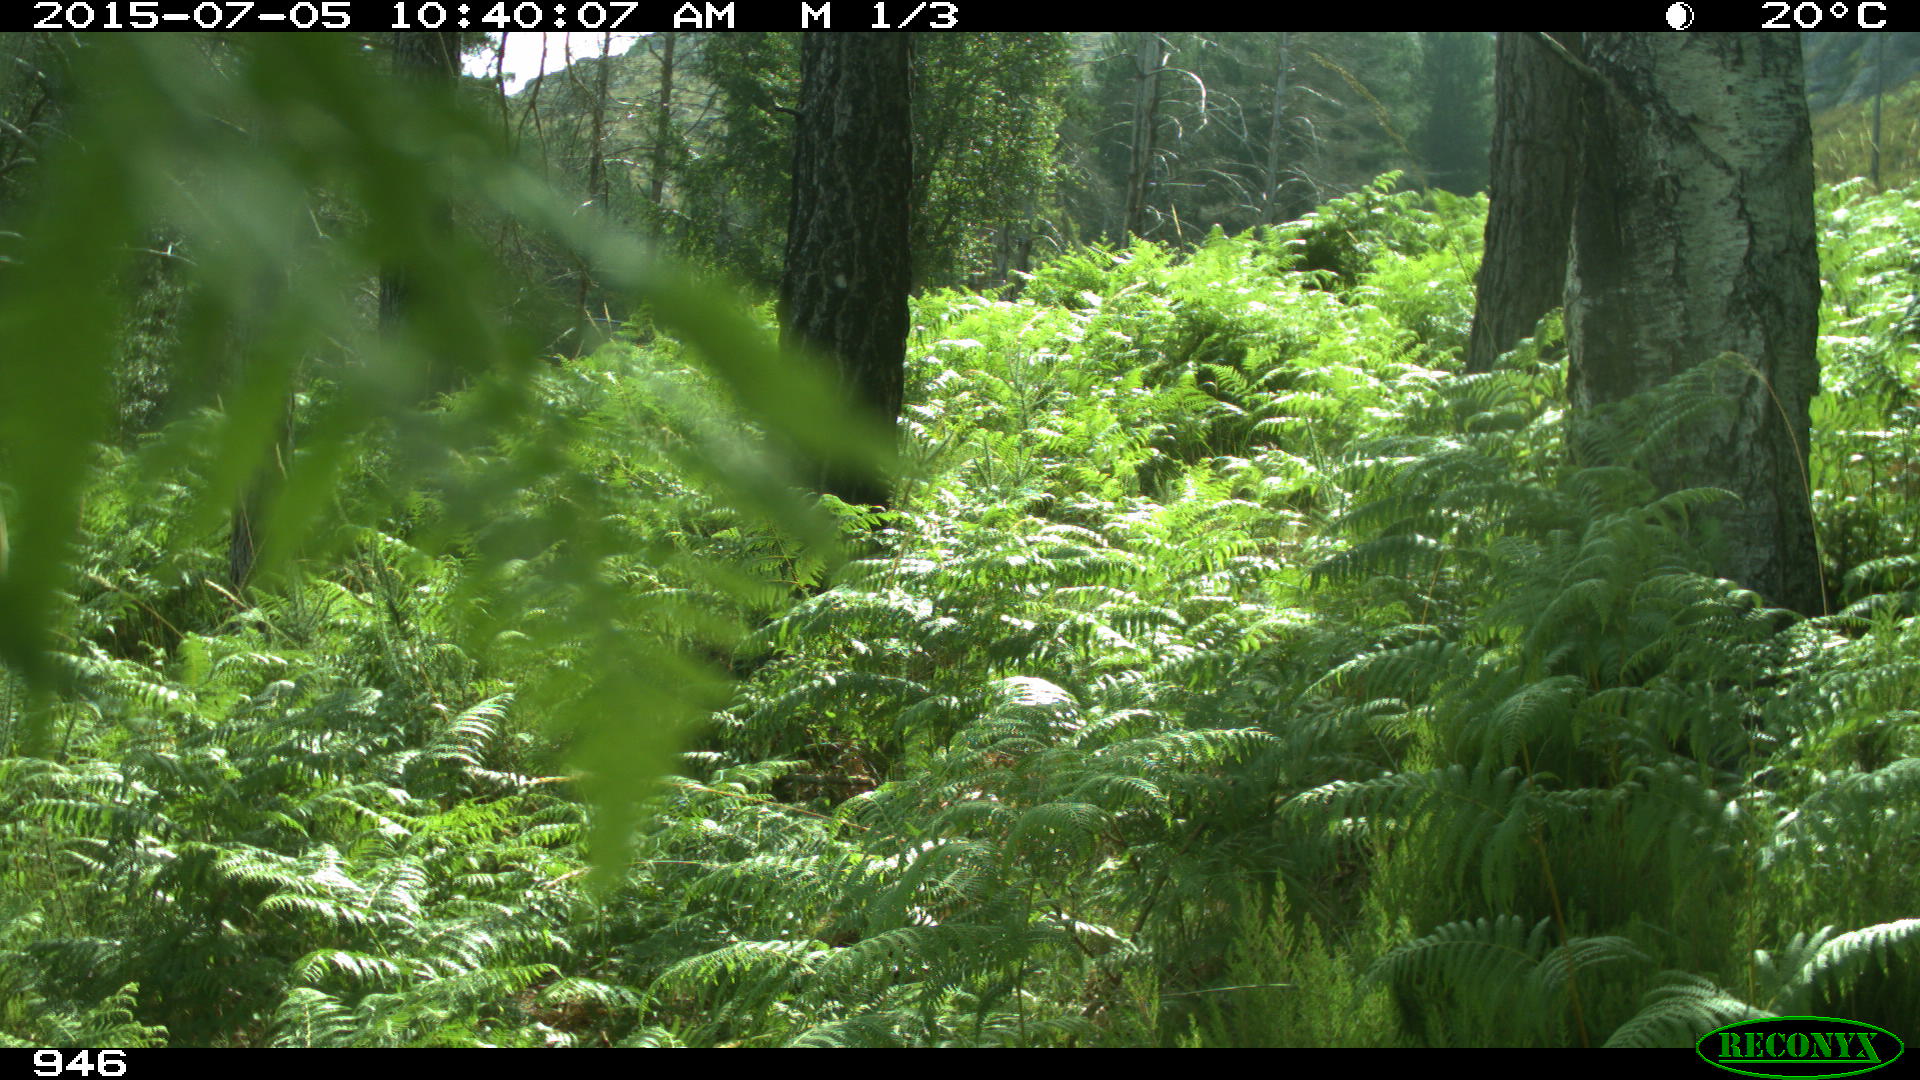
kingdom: Animalia
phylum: Chordata
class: Mammalia
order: Artiodactyla
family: Bovidae
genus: Bos
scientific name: Bos taurus
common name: Domesticated cattle
